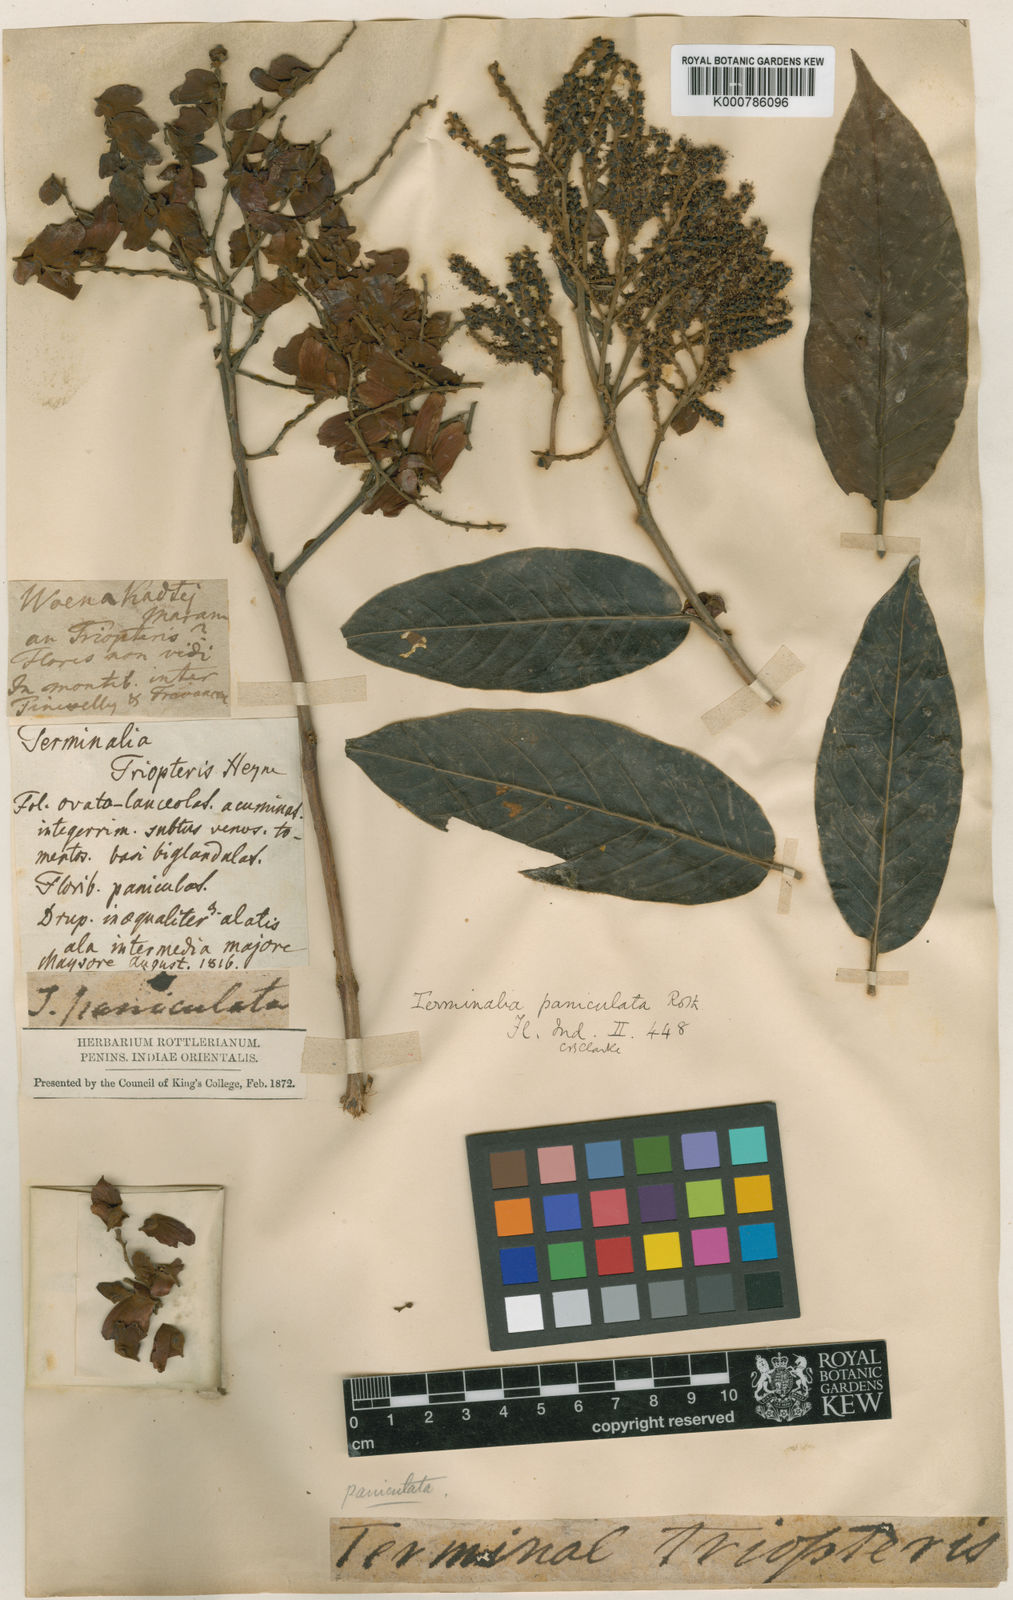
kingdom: Plantae
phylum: Tracheophyta
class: Magnoliopsida
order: Myrtales
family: Combretaceae
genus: Terminalia
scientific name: Terminalia paniculata
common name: Flowering murdah
